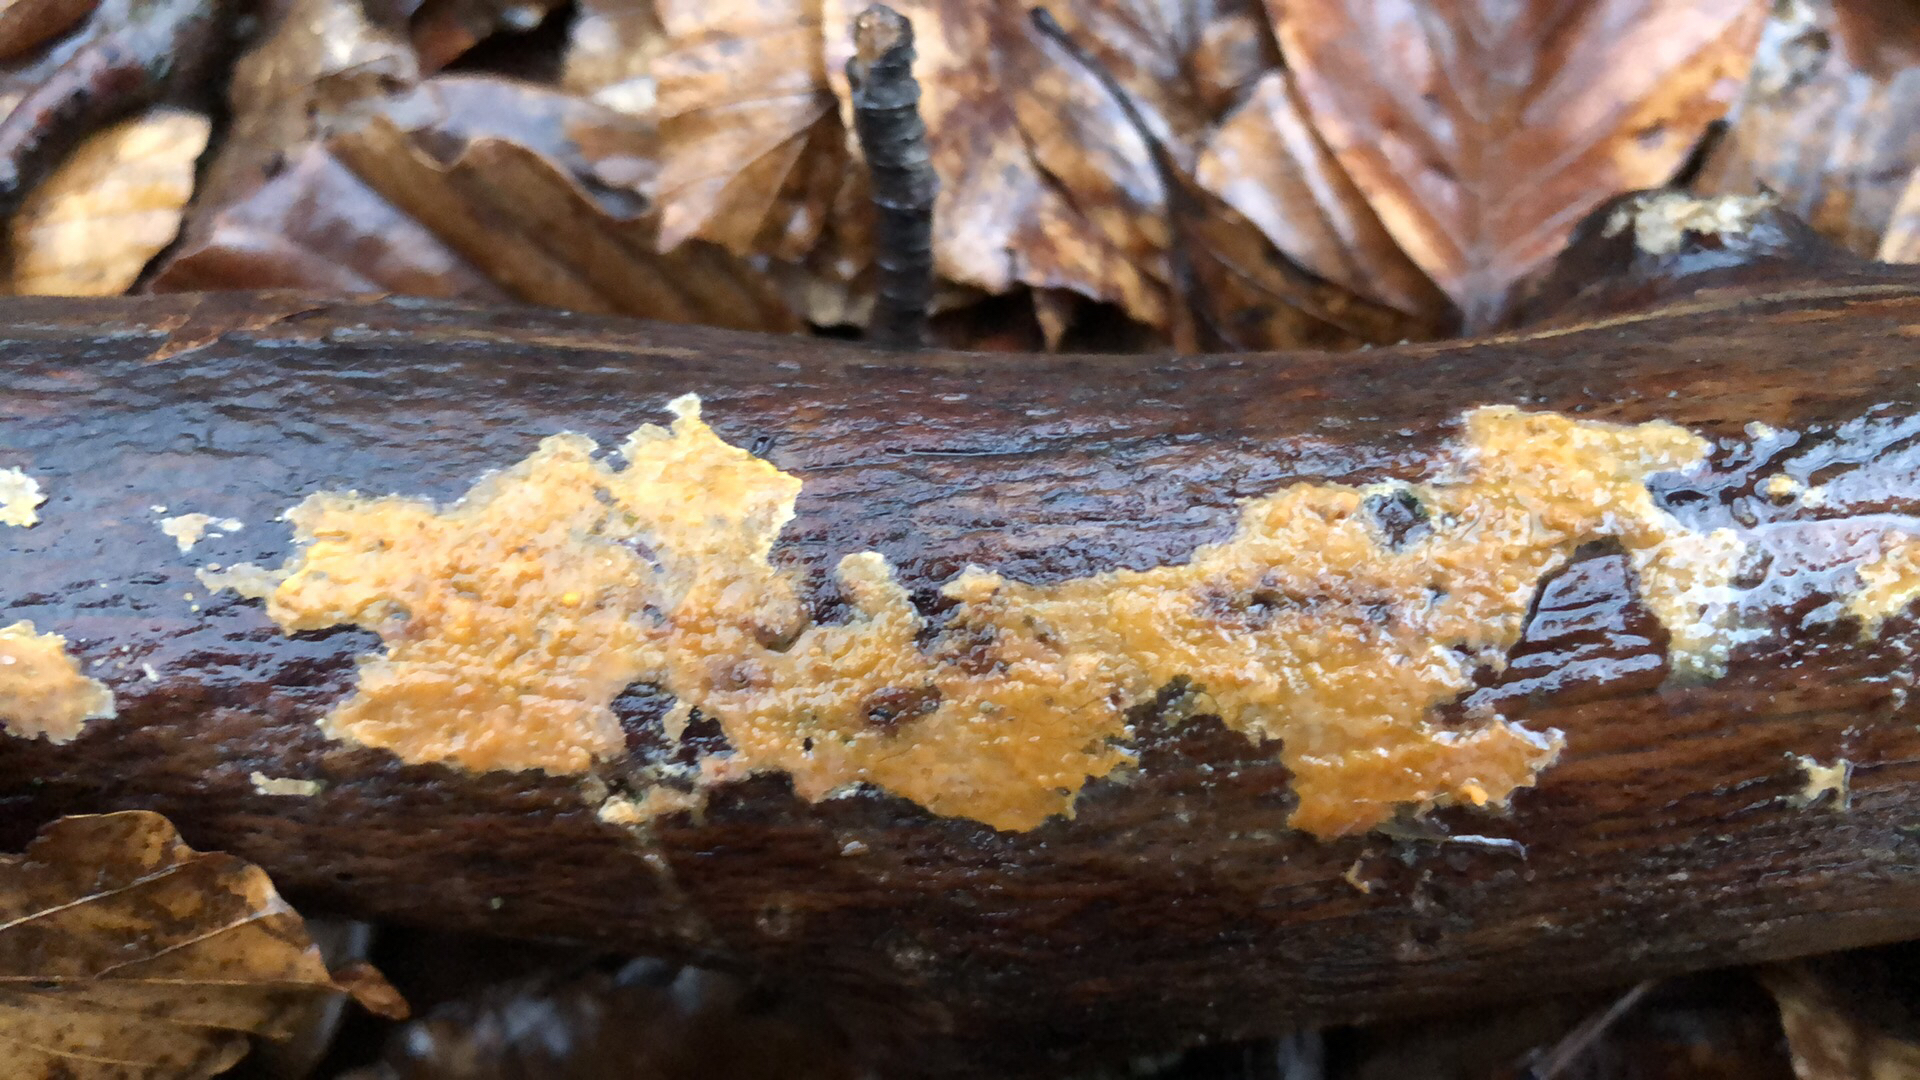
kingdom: Fungi
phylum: Basidiomycota
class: Agaricomycetes
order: Russulales
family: Peniophoraceae
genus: Peniophora
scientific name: Peniophora incarnata
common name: laksefarvet voksskind
